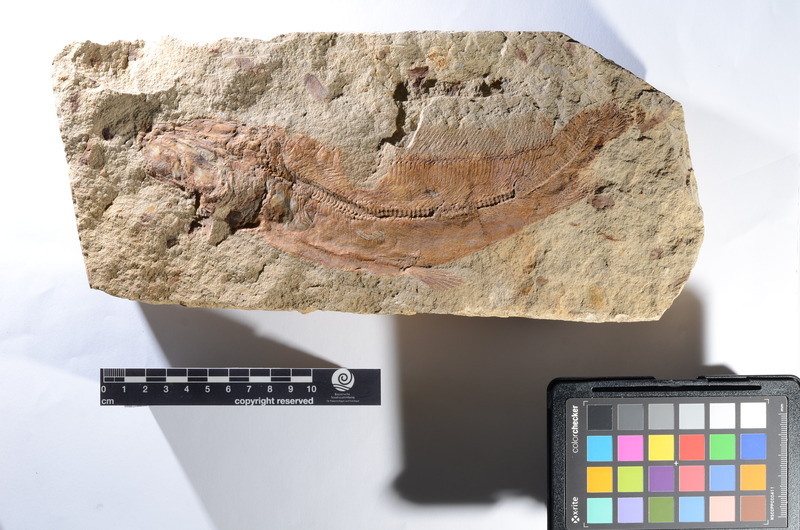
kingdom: Animalia
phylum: Chordata
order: Albuliformes
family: Albulidae
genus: Istieus
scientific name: Istieus grandis
